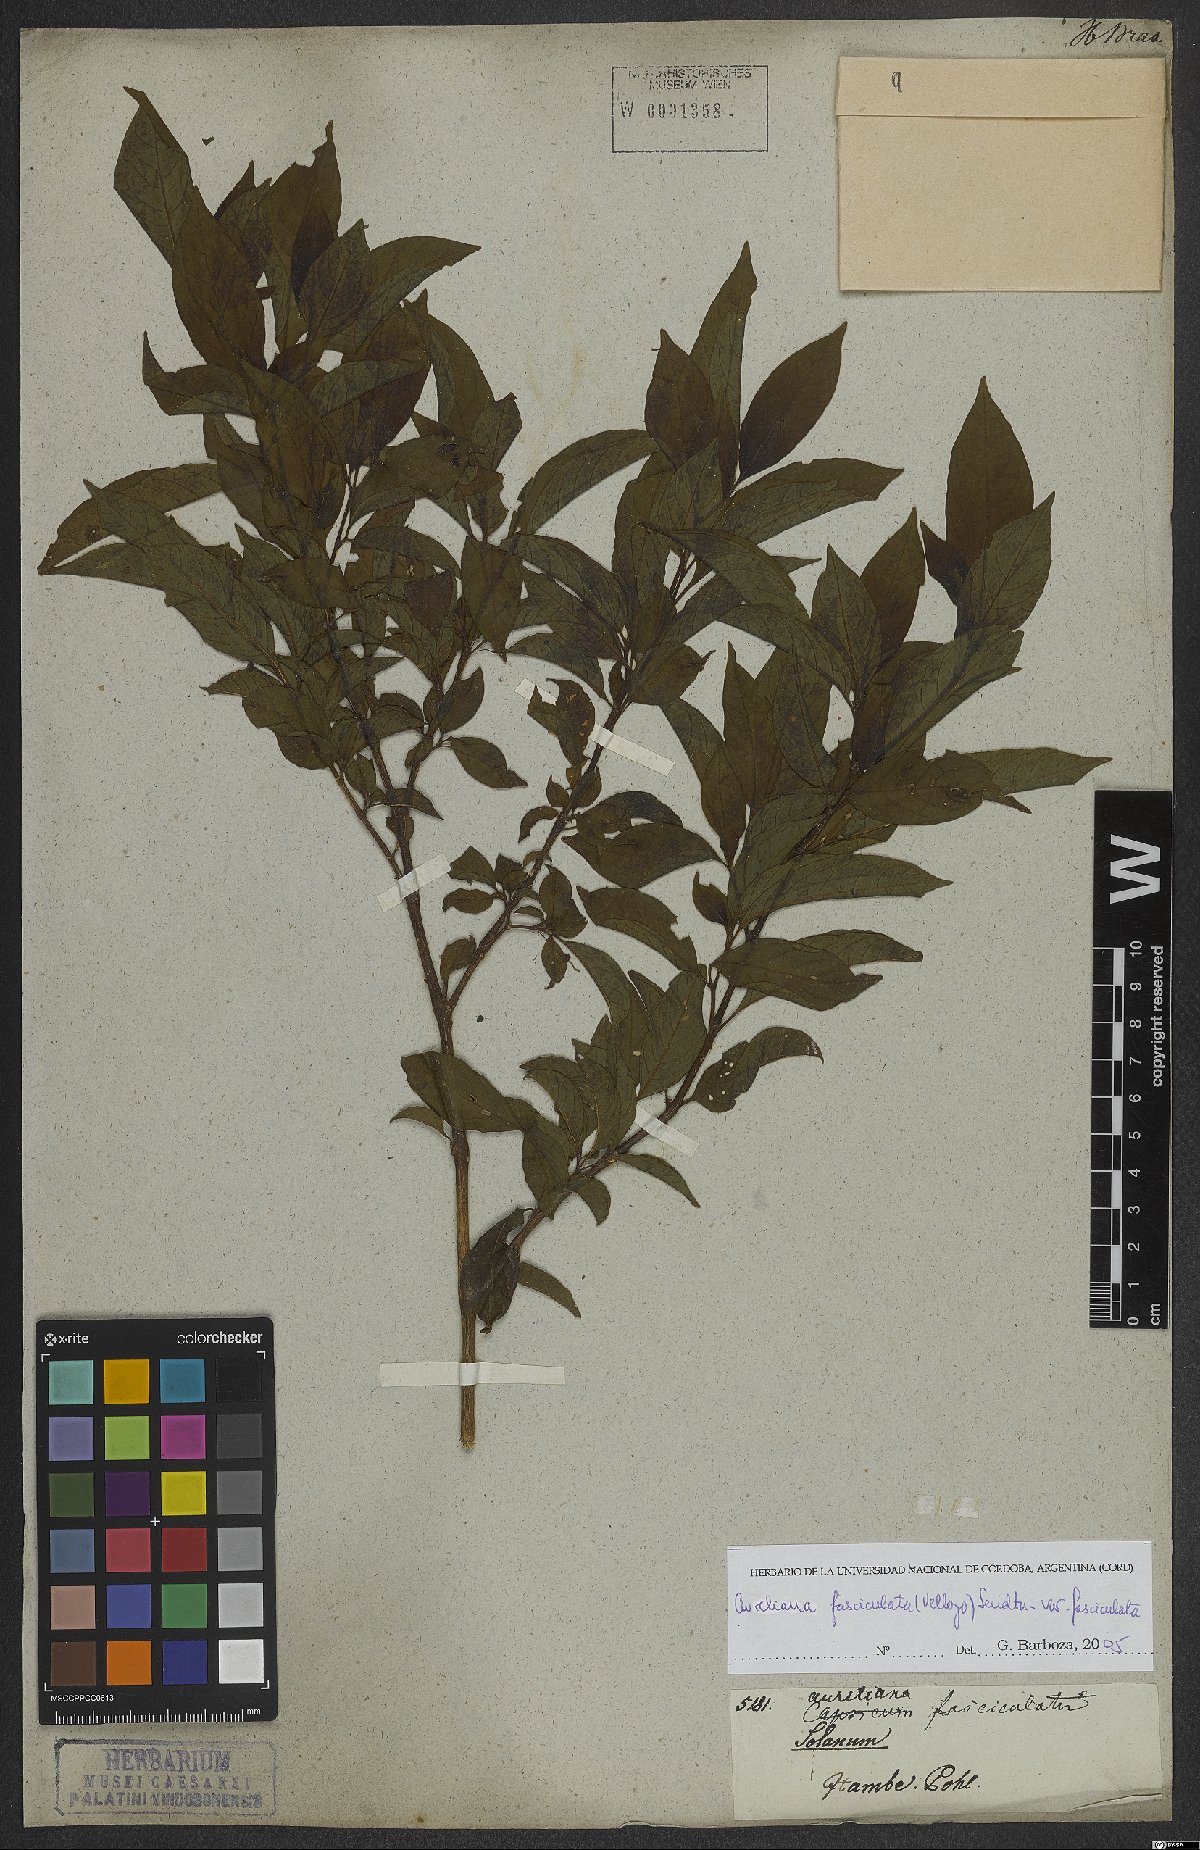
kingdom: Plantae
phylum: Tracheophyta
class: Magnoliopsida
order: Solanales
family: Solanaceae
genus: Athenaea
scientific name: Athenaea fasciculata
